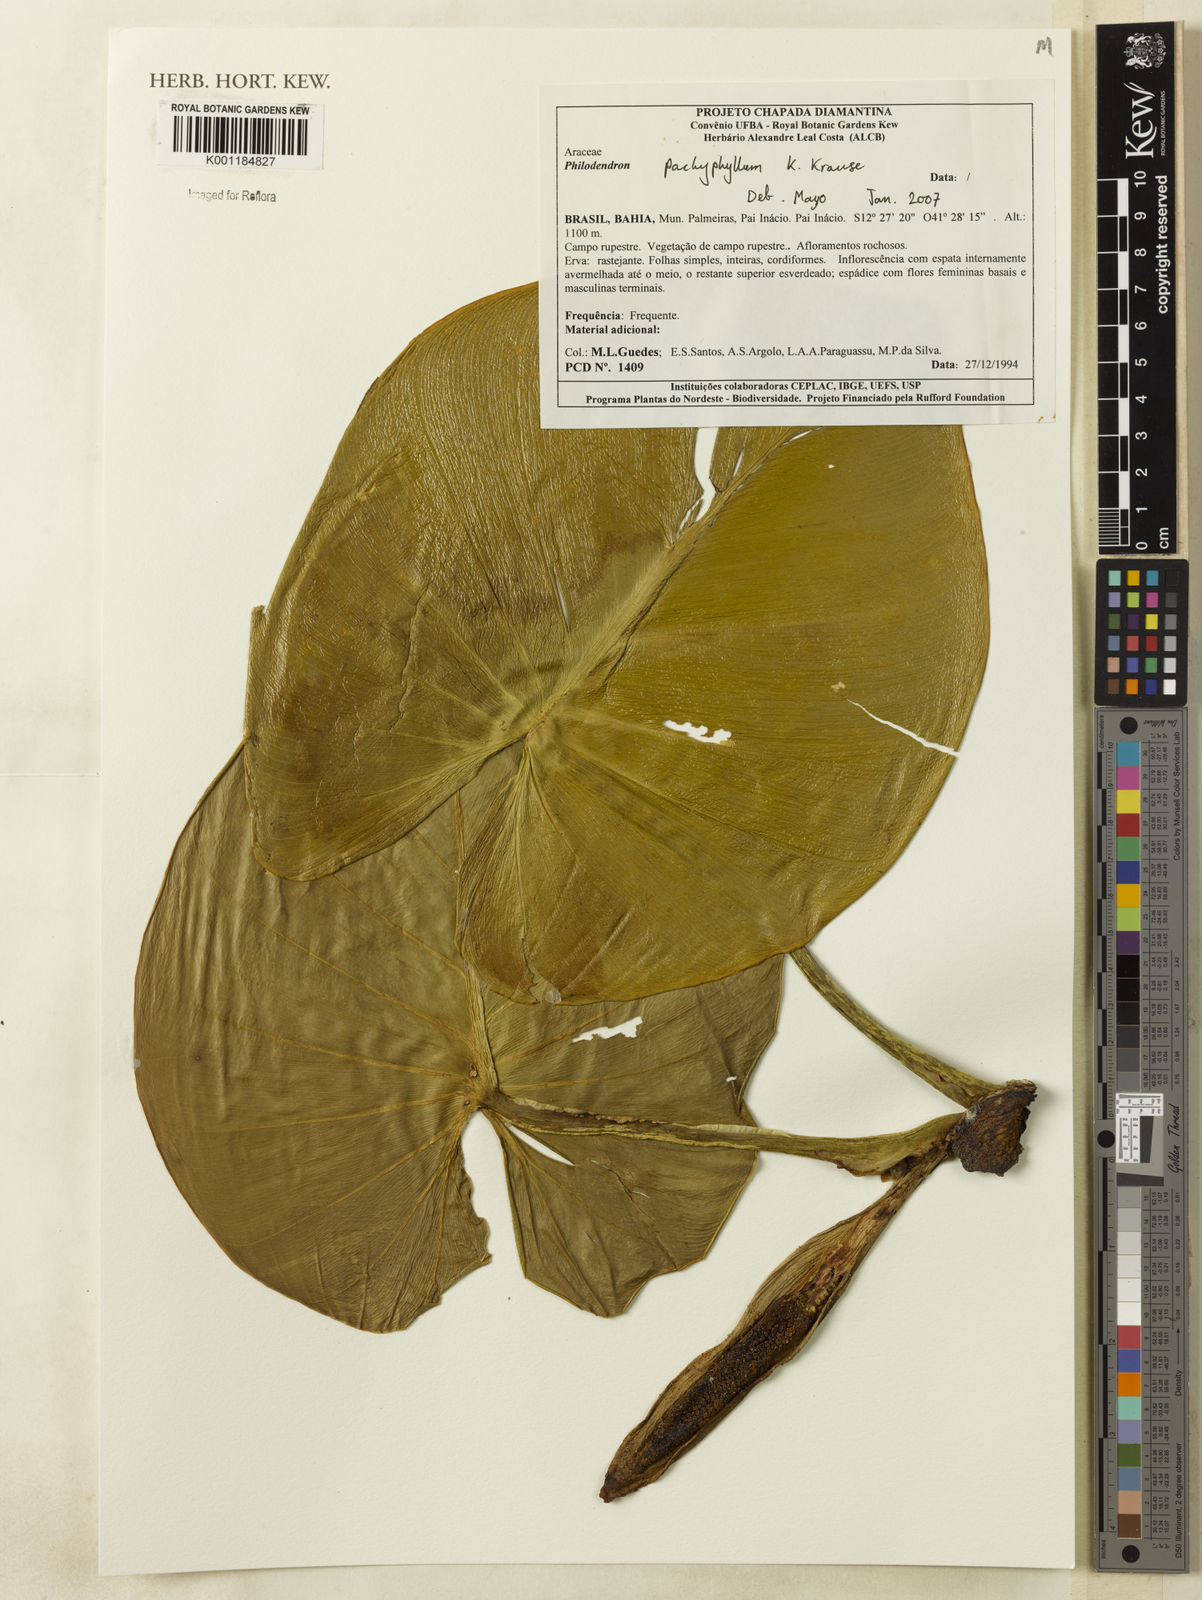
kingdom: Plantae
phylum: Tracheophyta
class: Liliopsida
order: Alismatales
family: Araceae
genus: Philodendron
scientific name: Philodendron pachyphyllum
